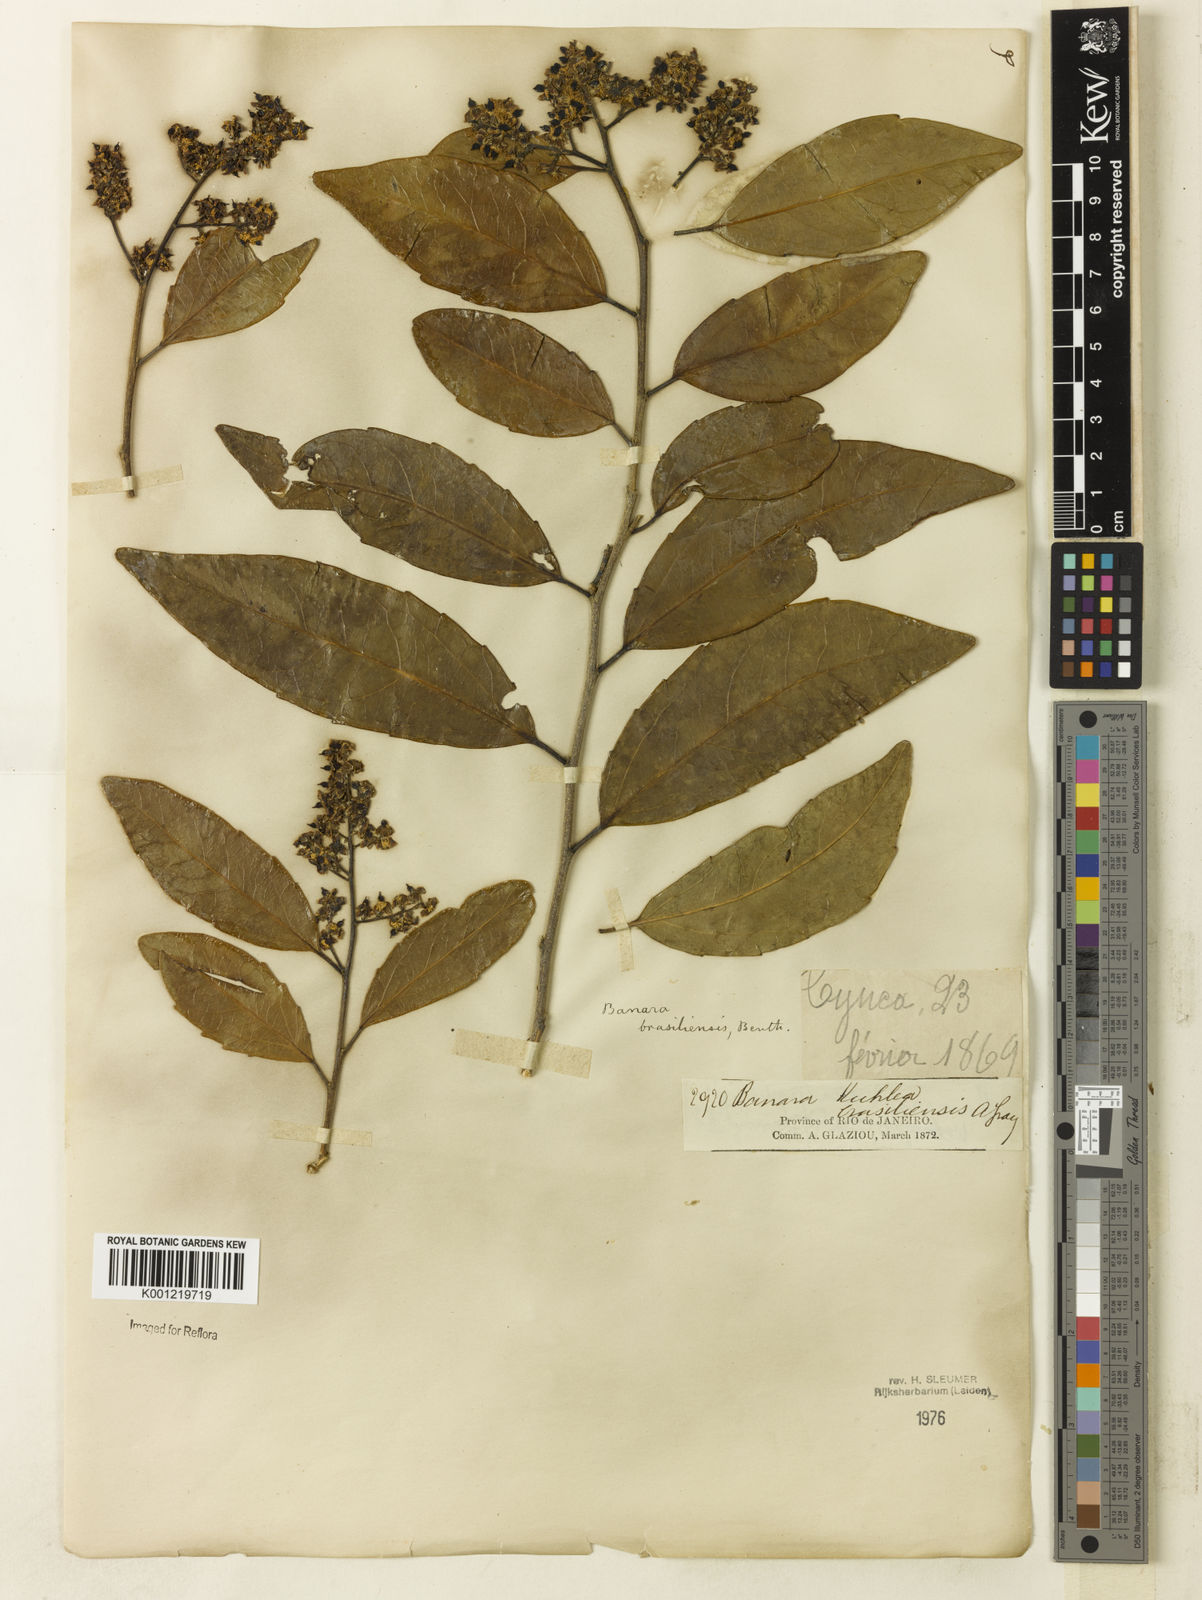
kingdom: Plantae
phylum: Tracheophyta
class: Magnoliopsida
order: Malpighiales
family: Salicaceae
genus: Banara
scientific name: Banara brasiliensis
